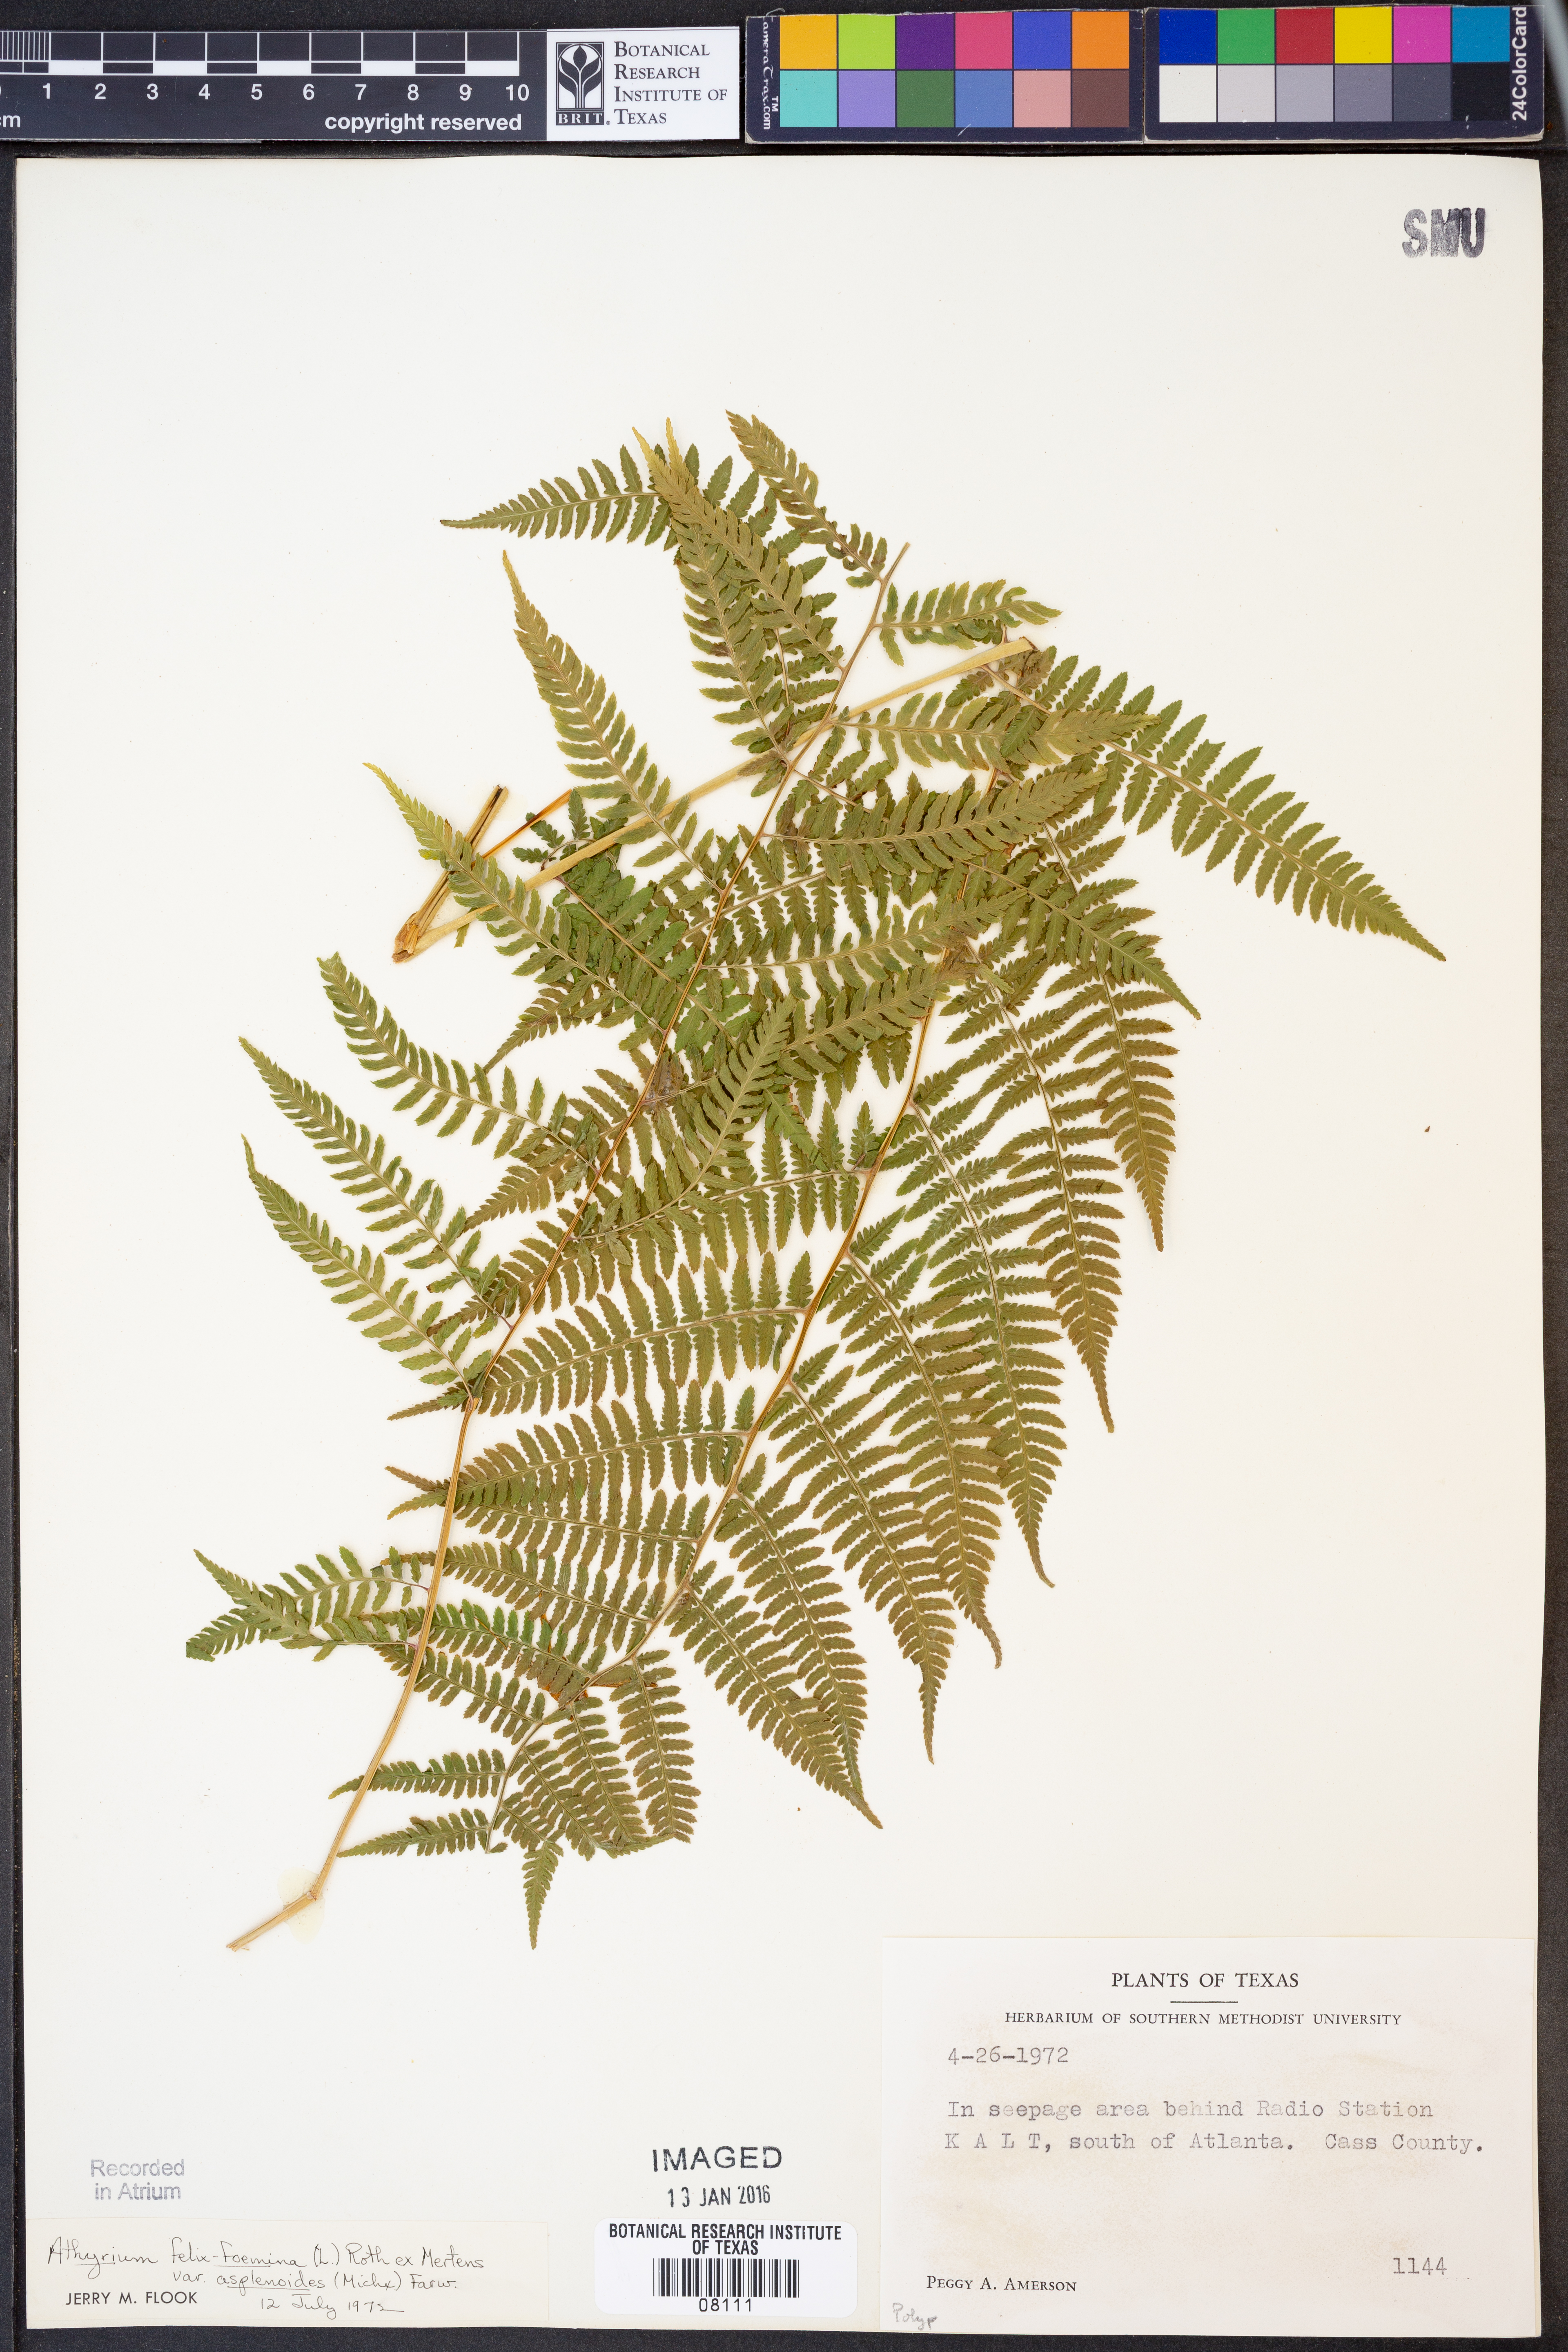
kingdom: Plantae
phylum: Tracheophyta
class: Polypodiopsida
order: Polypodiales
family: Athyriaceae
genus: Athyrium
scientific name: Athyrium asplenioides
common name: Southern lady fern
